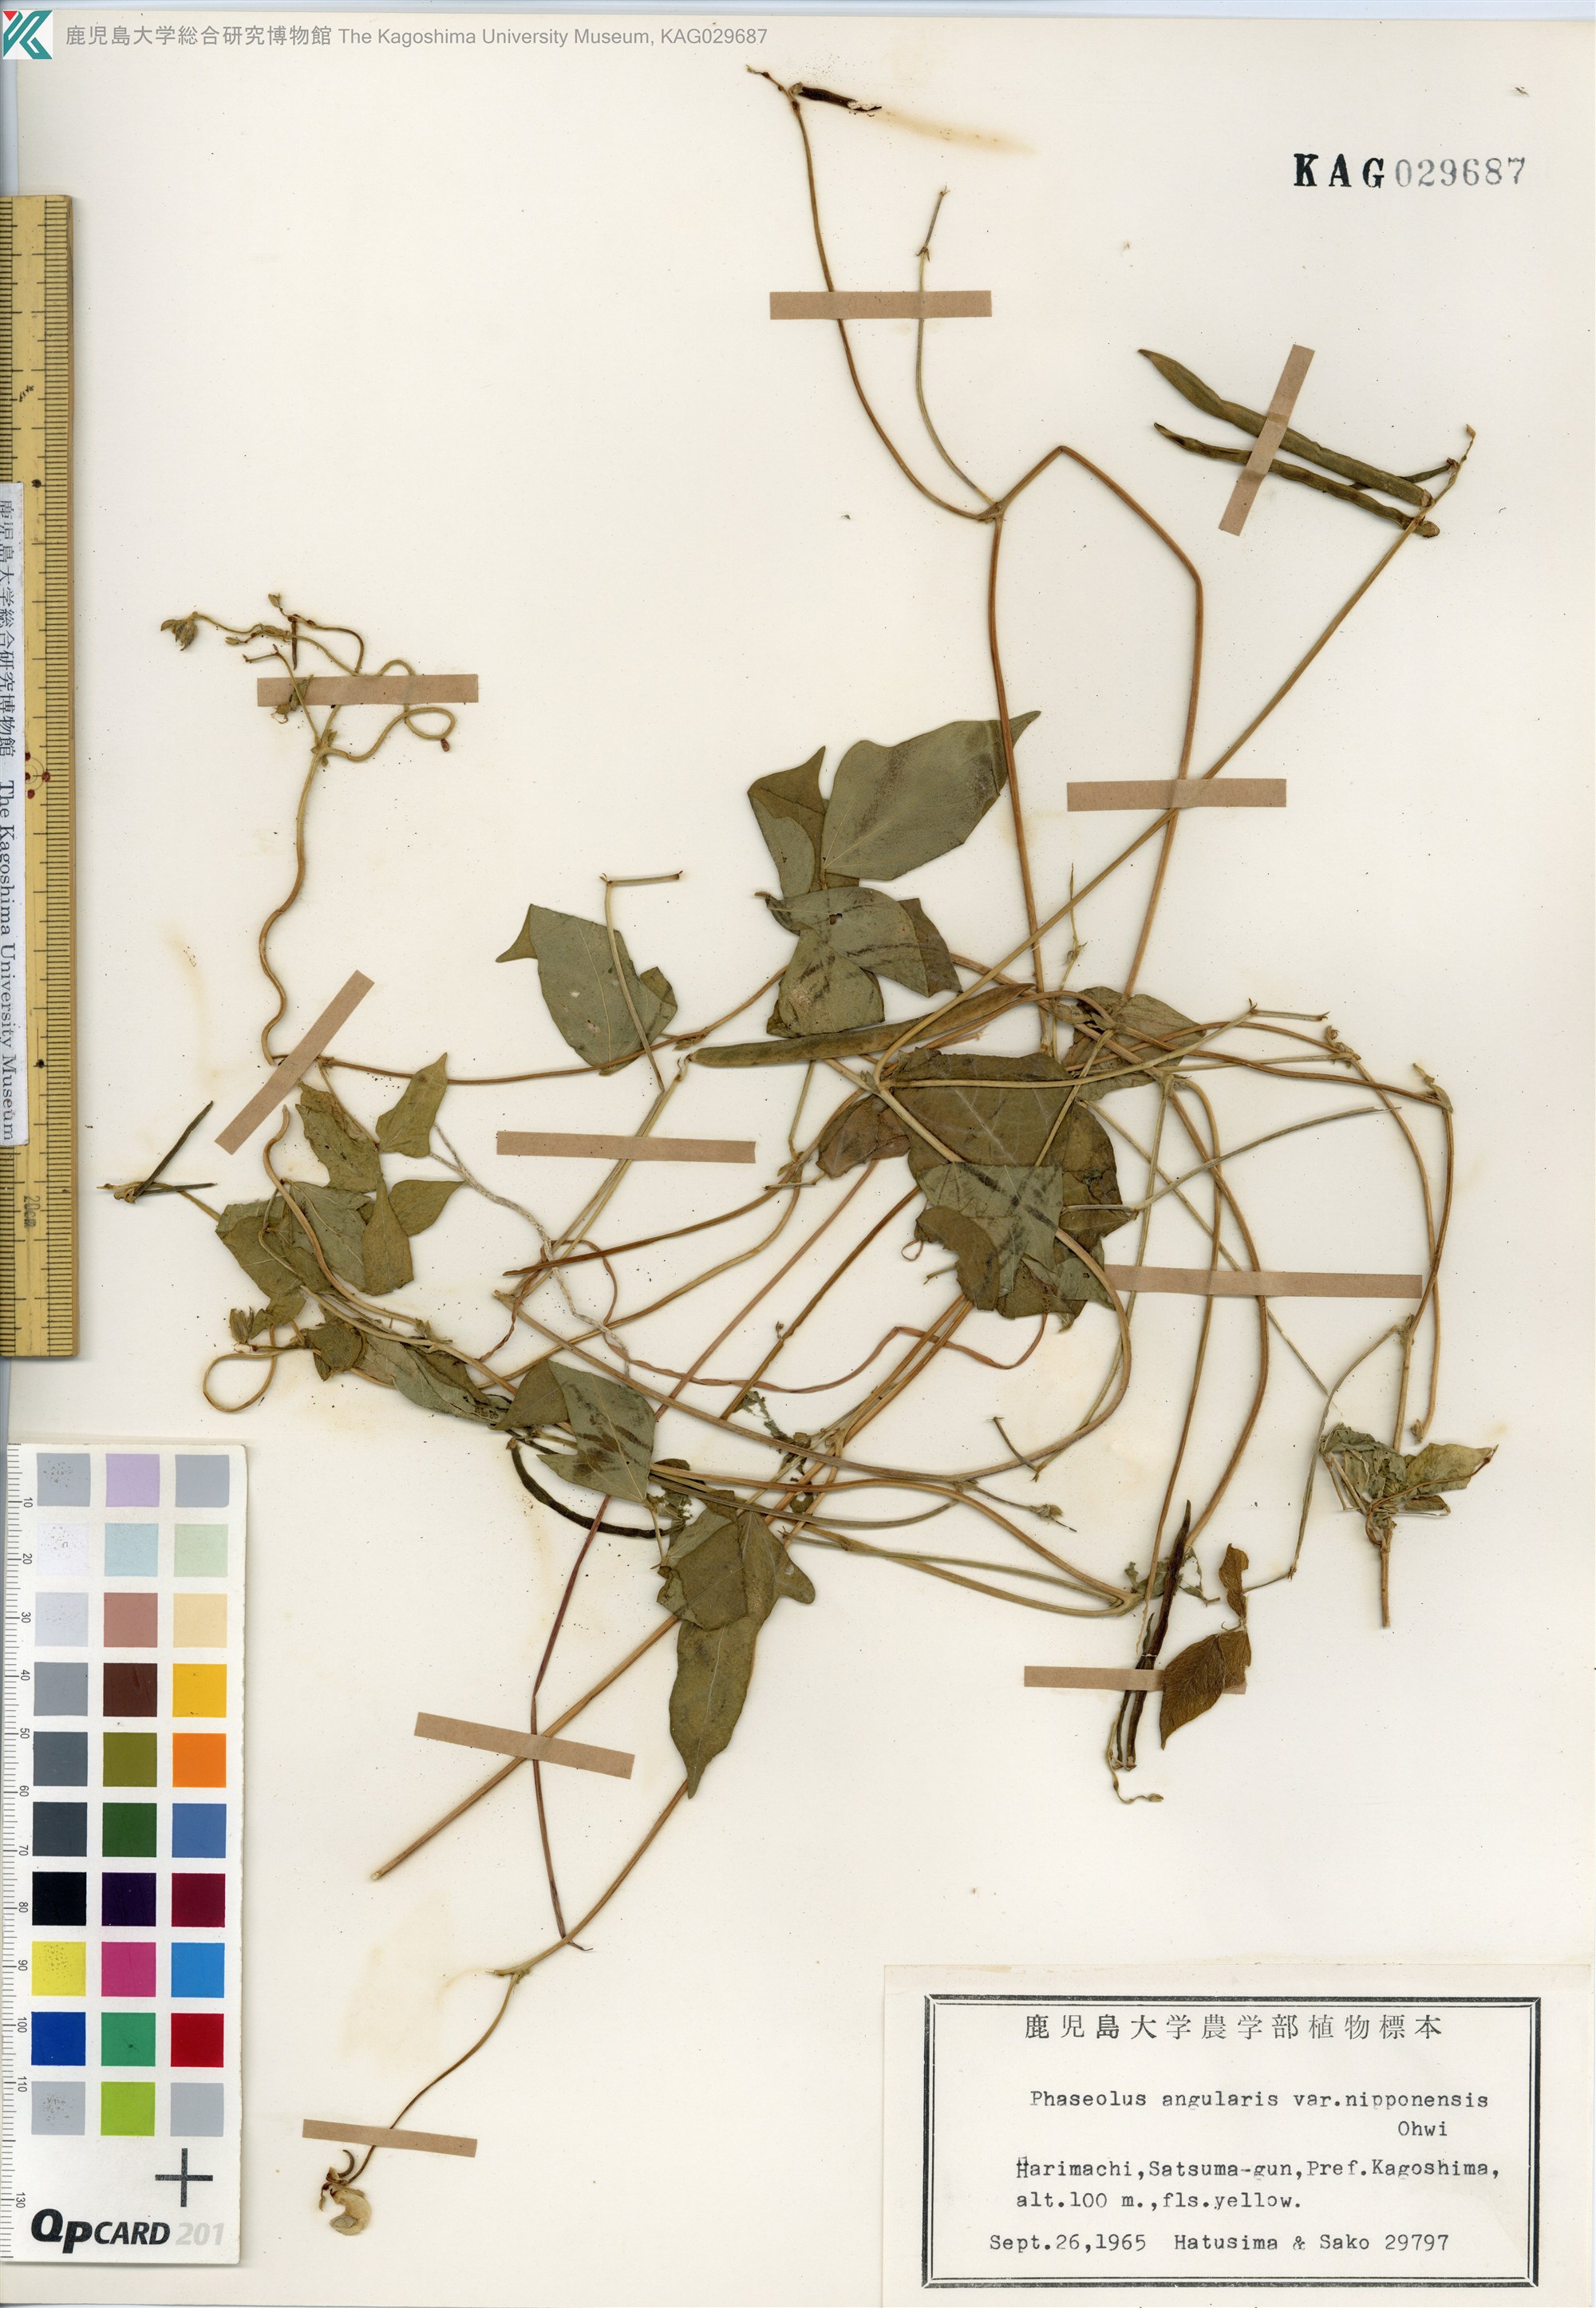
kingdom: Plantae
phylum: Tracheophyta
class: Magnoliopsida
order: Fabales
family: Fabaceae
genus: Vigna
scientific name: Vigna angularis
